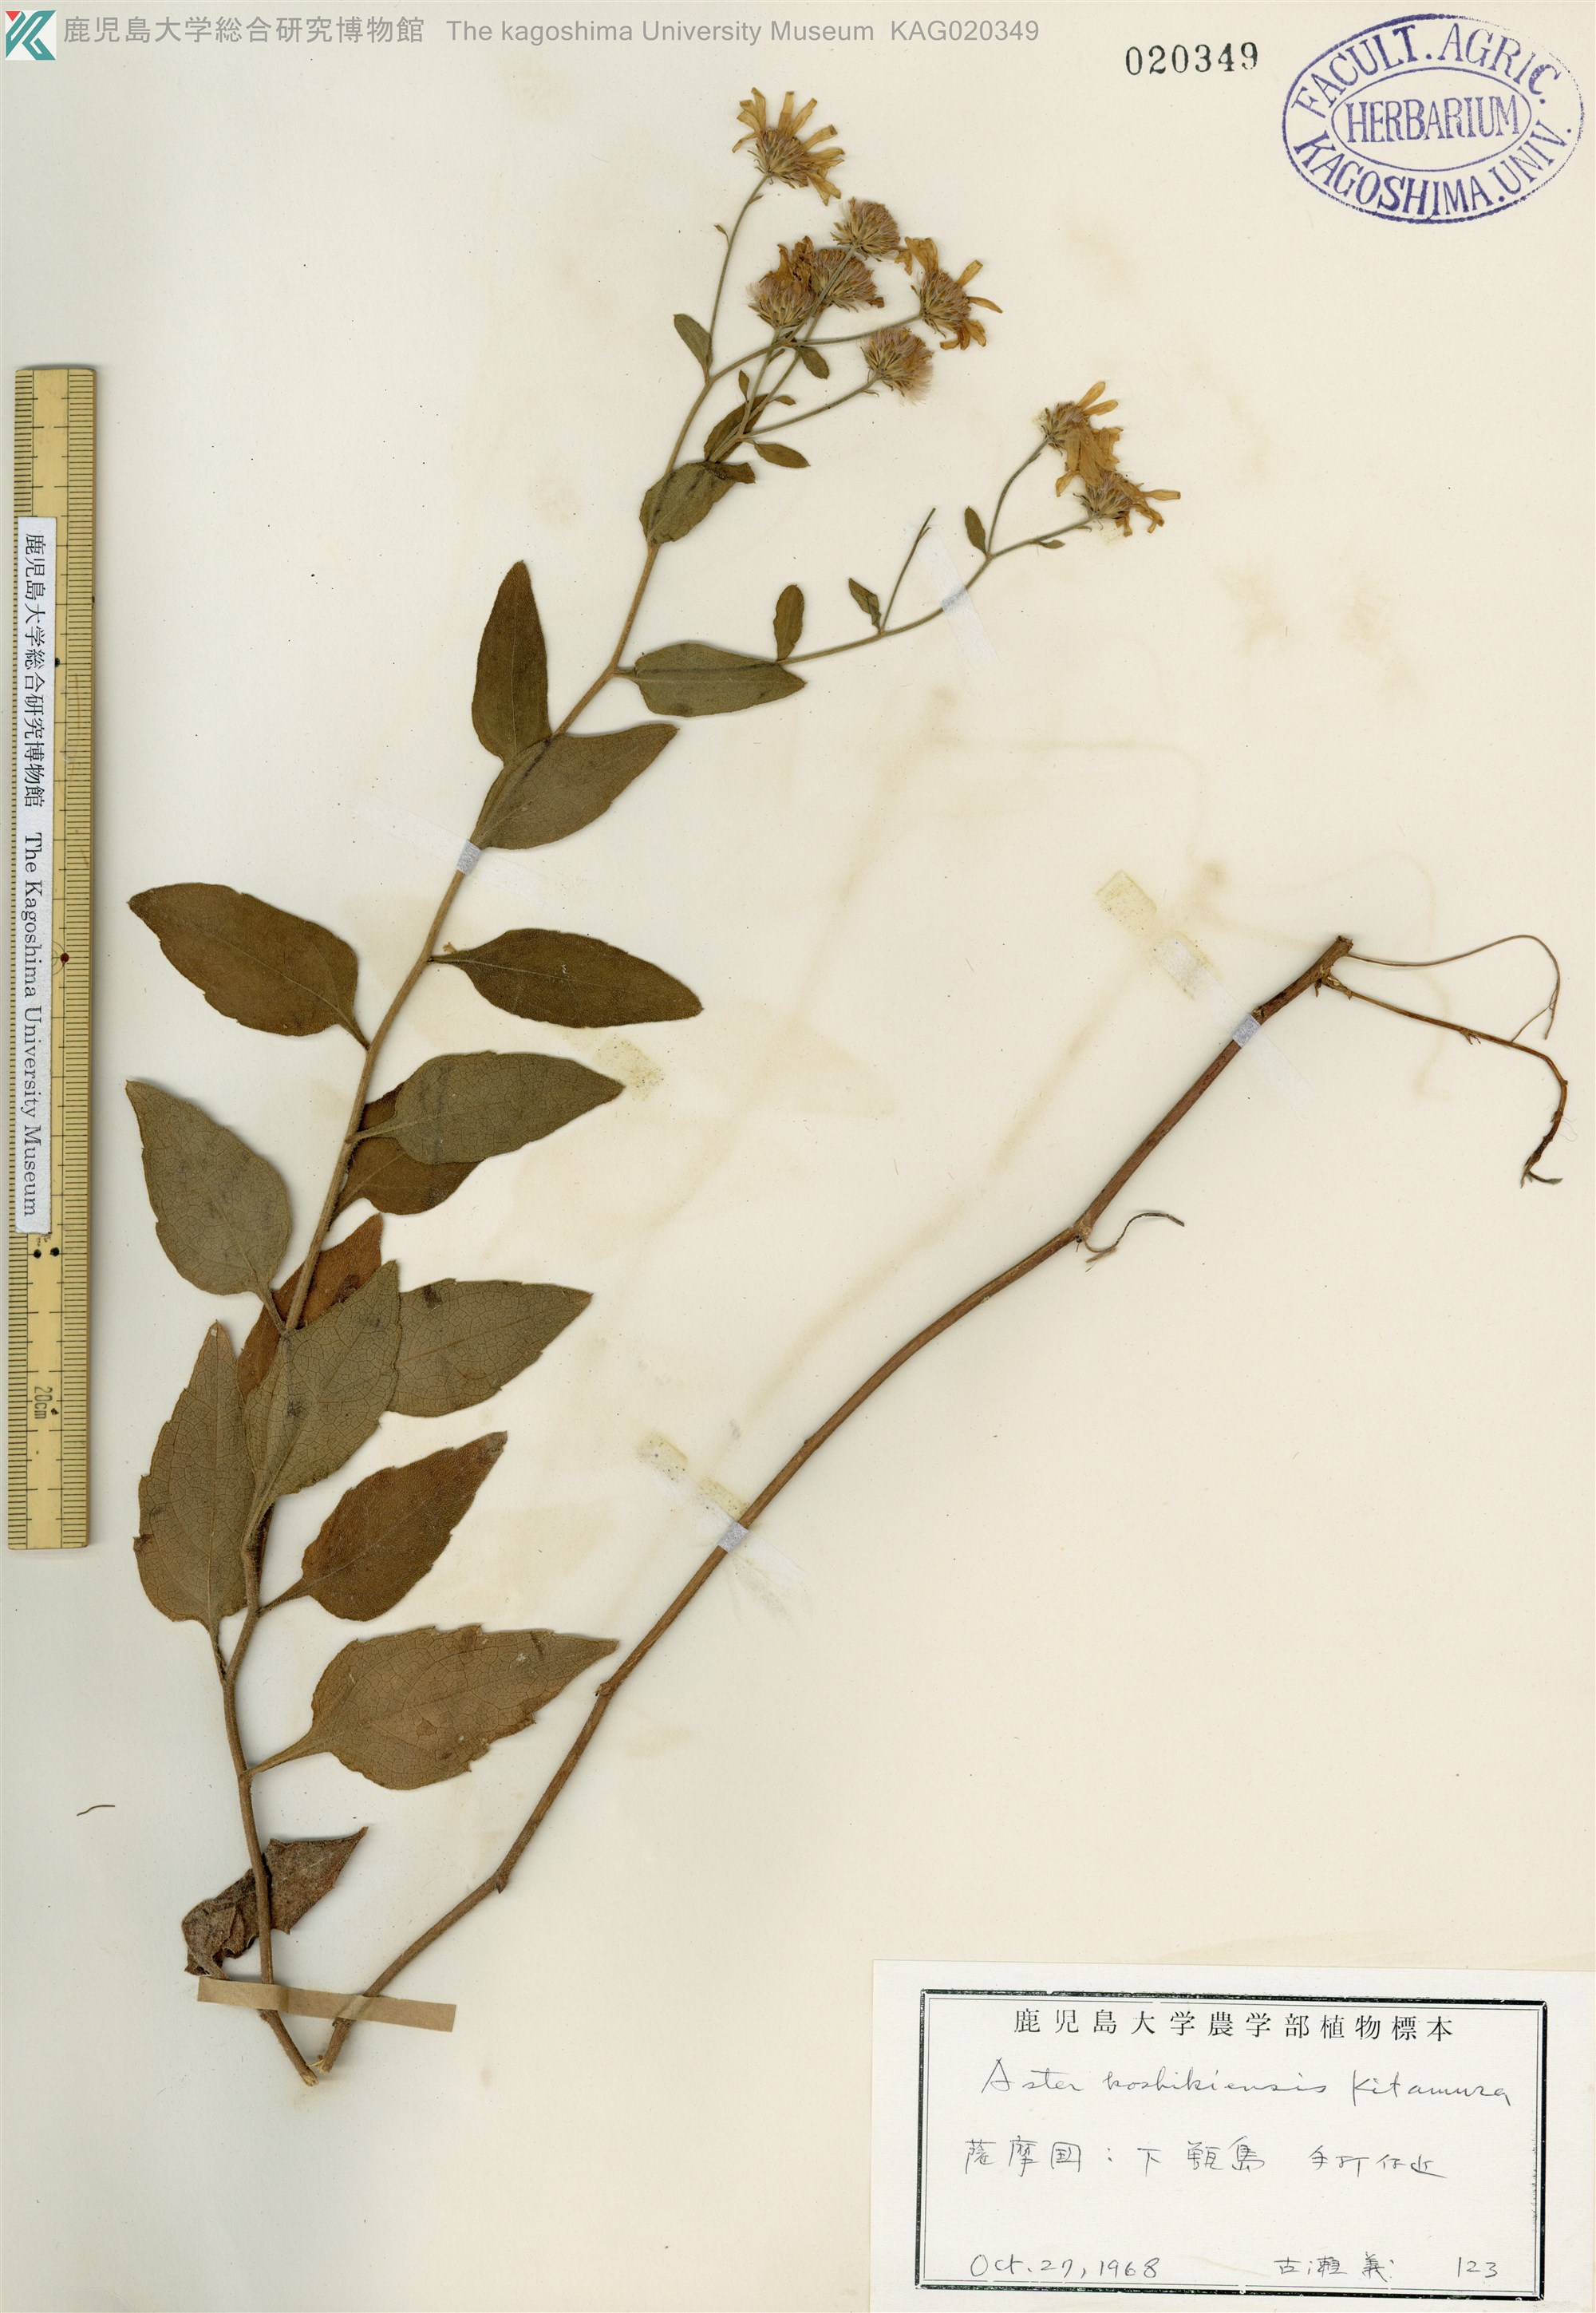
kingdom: Plantae
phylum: Tracheophyta
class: Magnoliopsida
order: Asterales
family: Asteraceae
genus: Aster
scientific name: Aster koshikiensis
